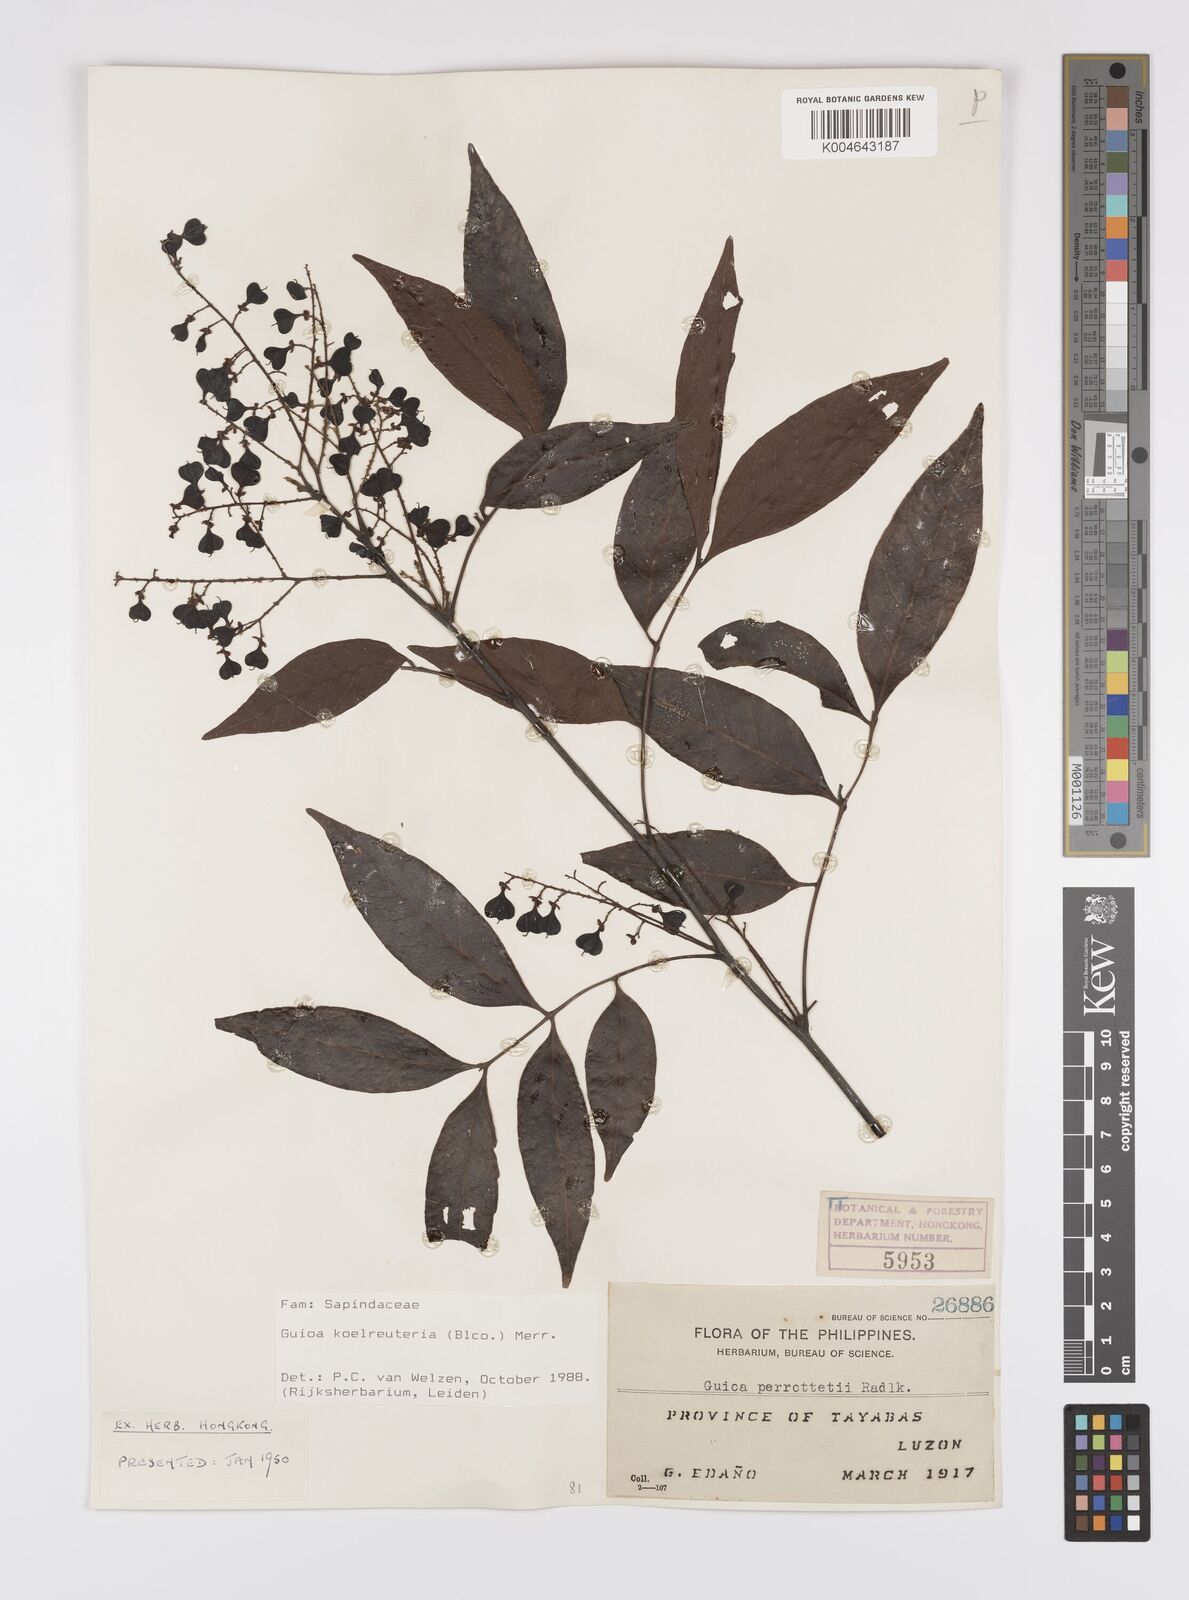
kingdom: Plantae
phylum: Tracheophyta
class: Magnoliopsida
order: Sapindales
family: Sapindaceae
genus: Guioa
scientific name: Guioa koelreuteria
